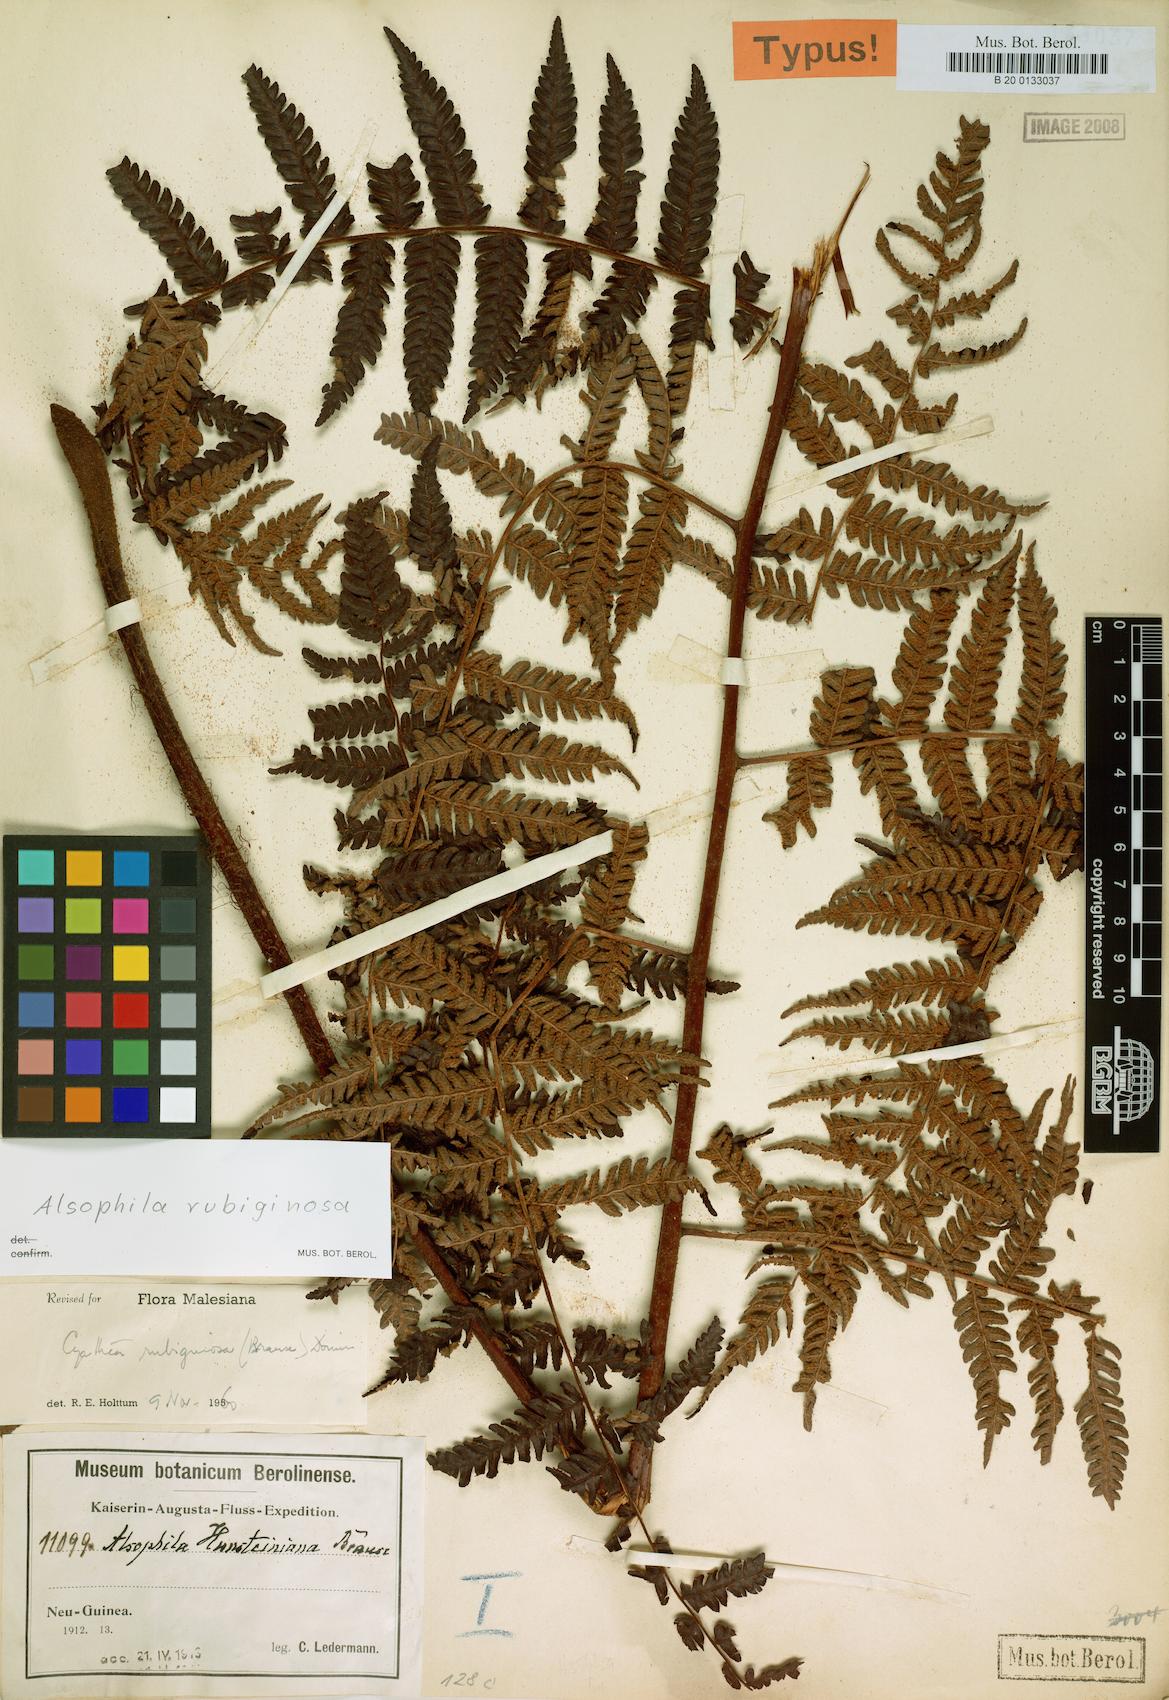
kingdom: Plantae
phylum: Tracheophyta
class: Polypodiopsida
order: Cyatheales
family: Cyatheaceae
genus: Alsophila
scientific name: Alsophila rubiginosa
